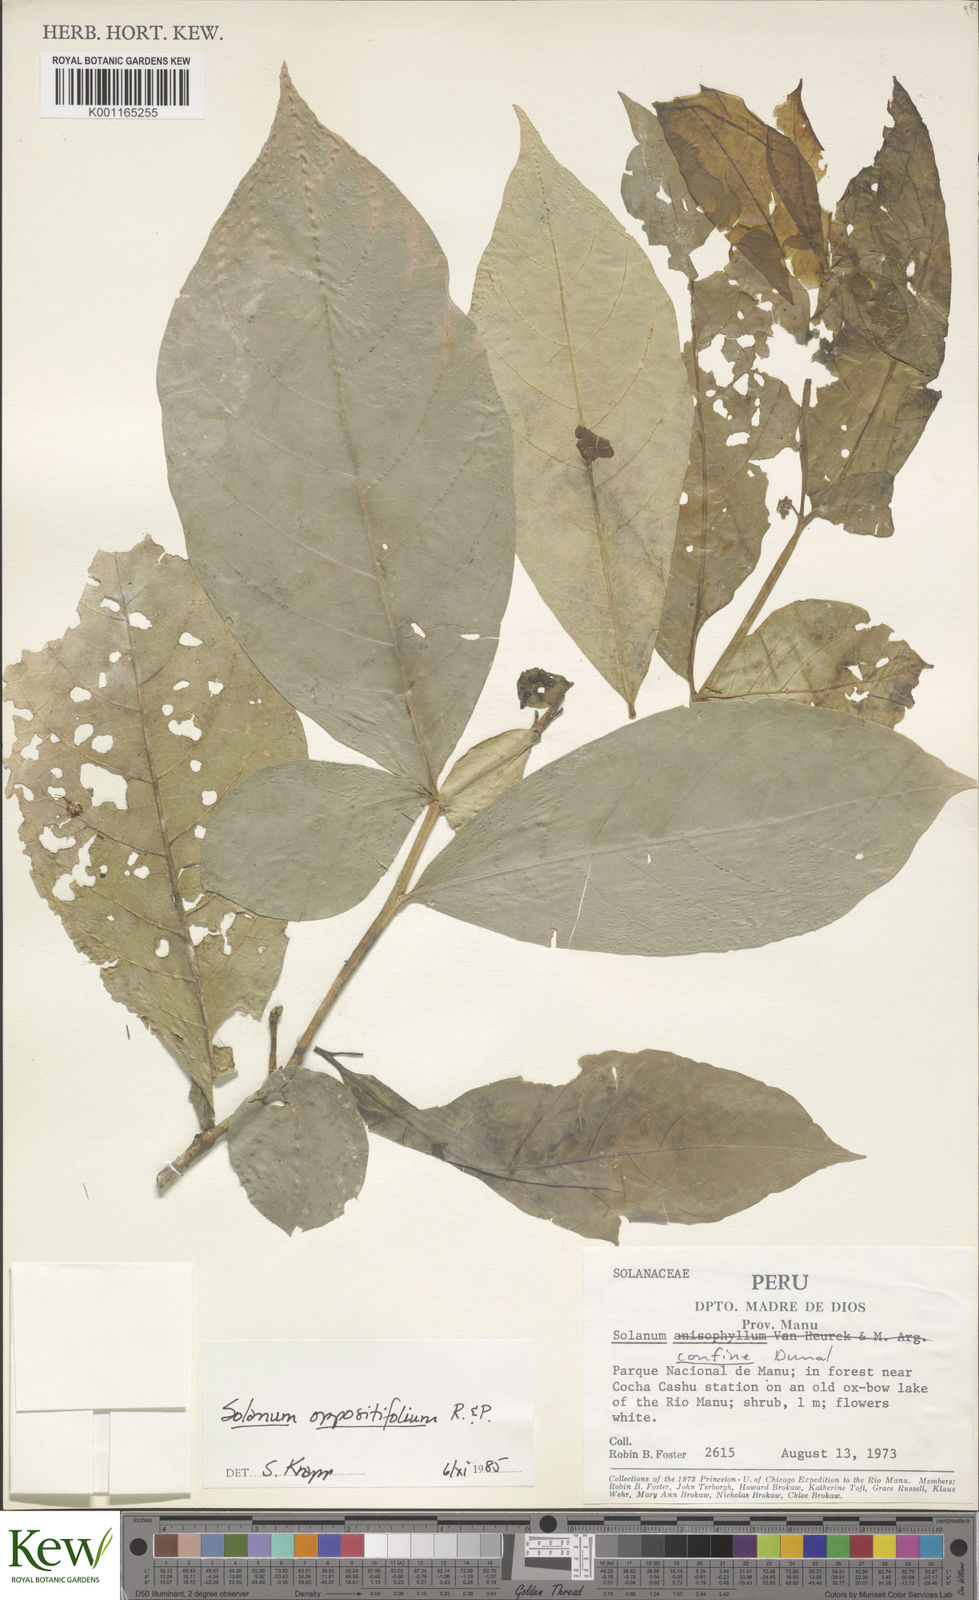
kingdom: Plantae
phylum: Tracheophyta
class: Magnoliopsida
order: Solanales
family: Solanaceae
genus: Solanum
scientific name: Solanum oppositifolium
